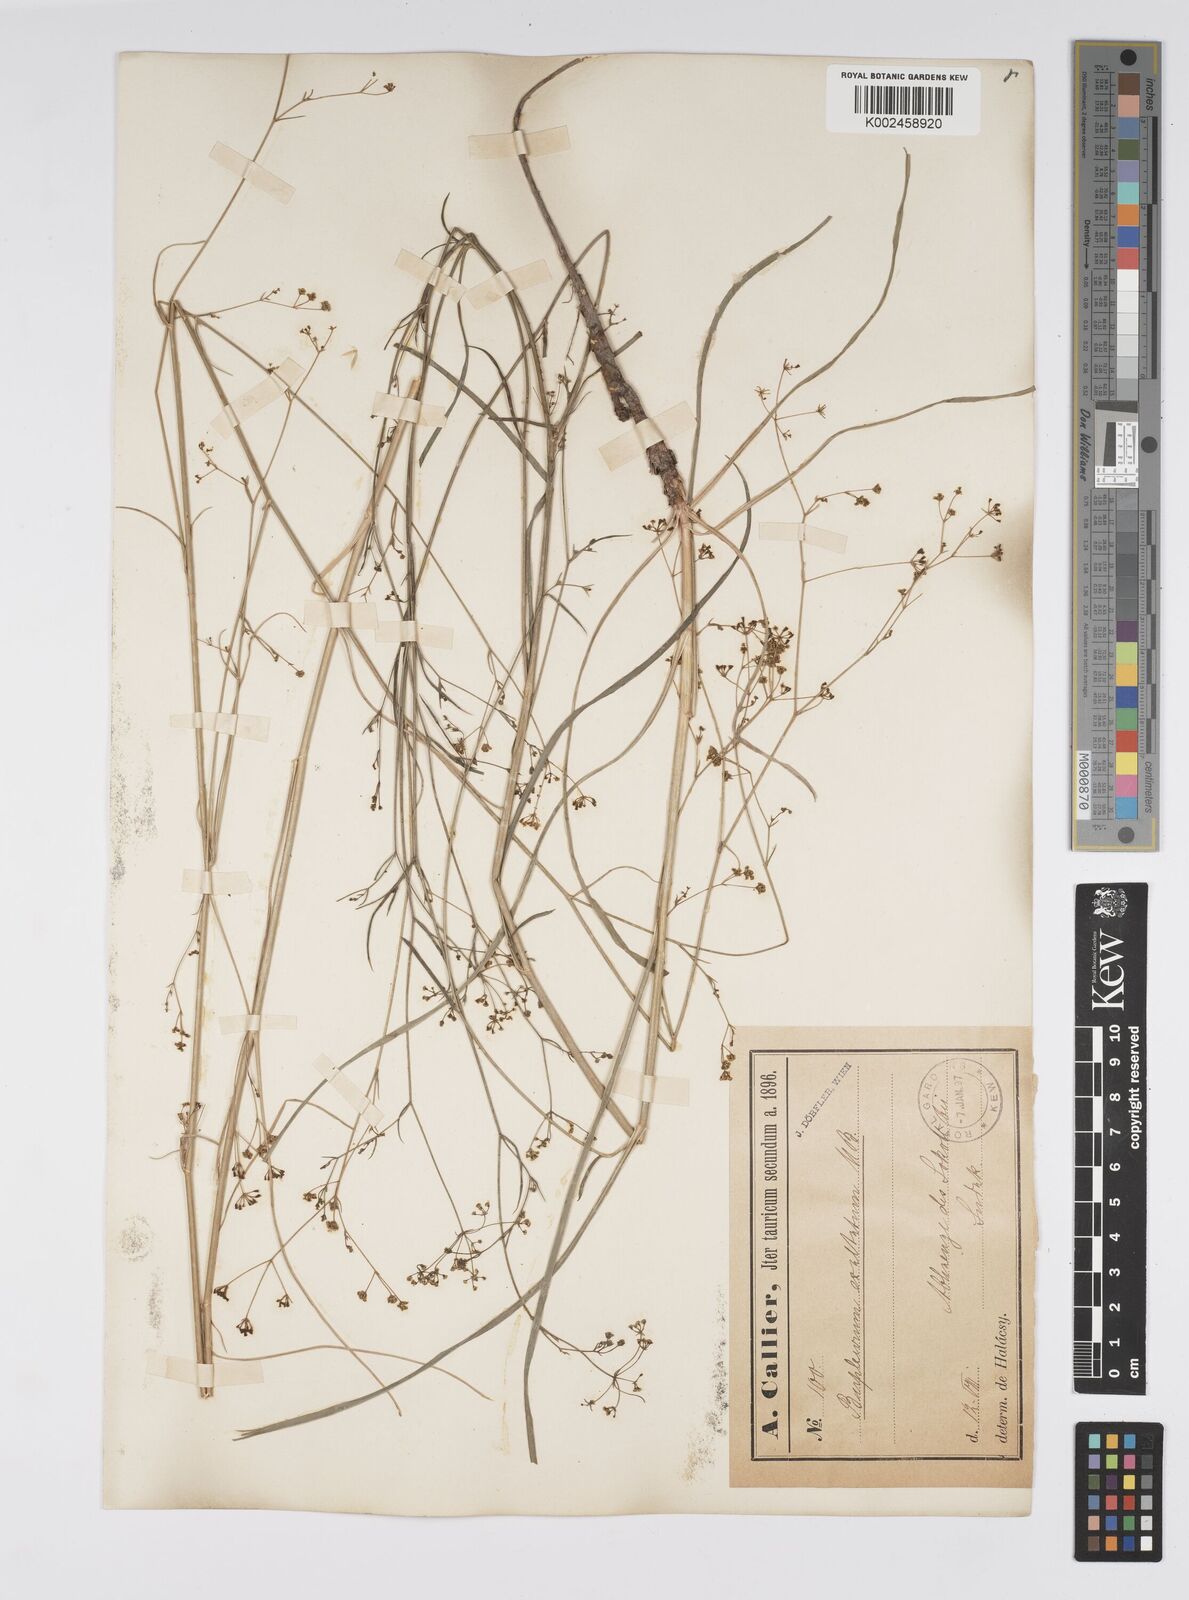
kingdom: Plantae
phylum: Tracheophyta
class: Magnoliopsida
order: Apiales
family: Apiaceae
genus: Bupleurum
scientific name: Bupleurum falcatum
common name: Sickle-leaved hare's-ear
